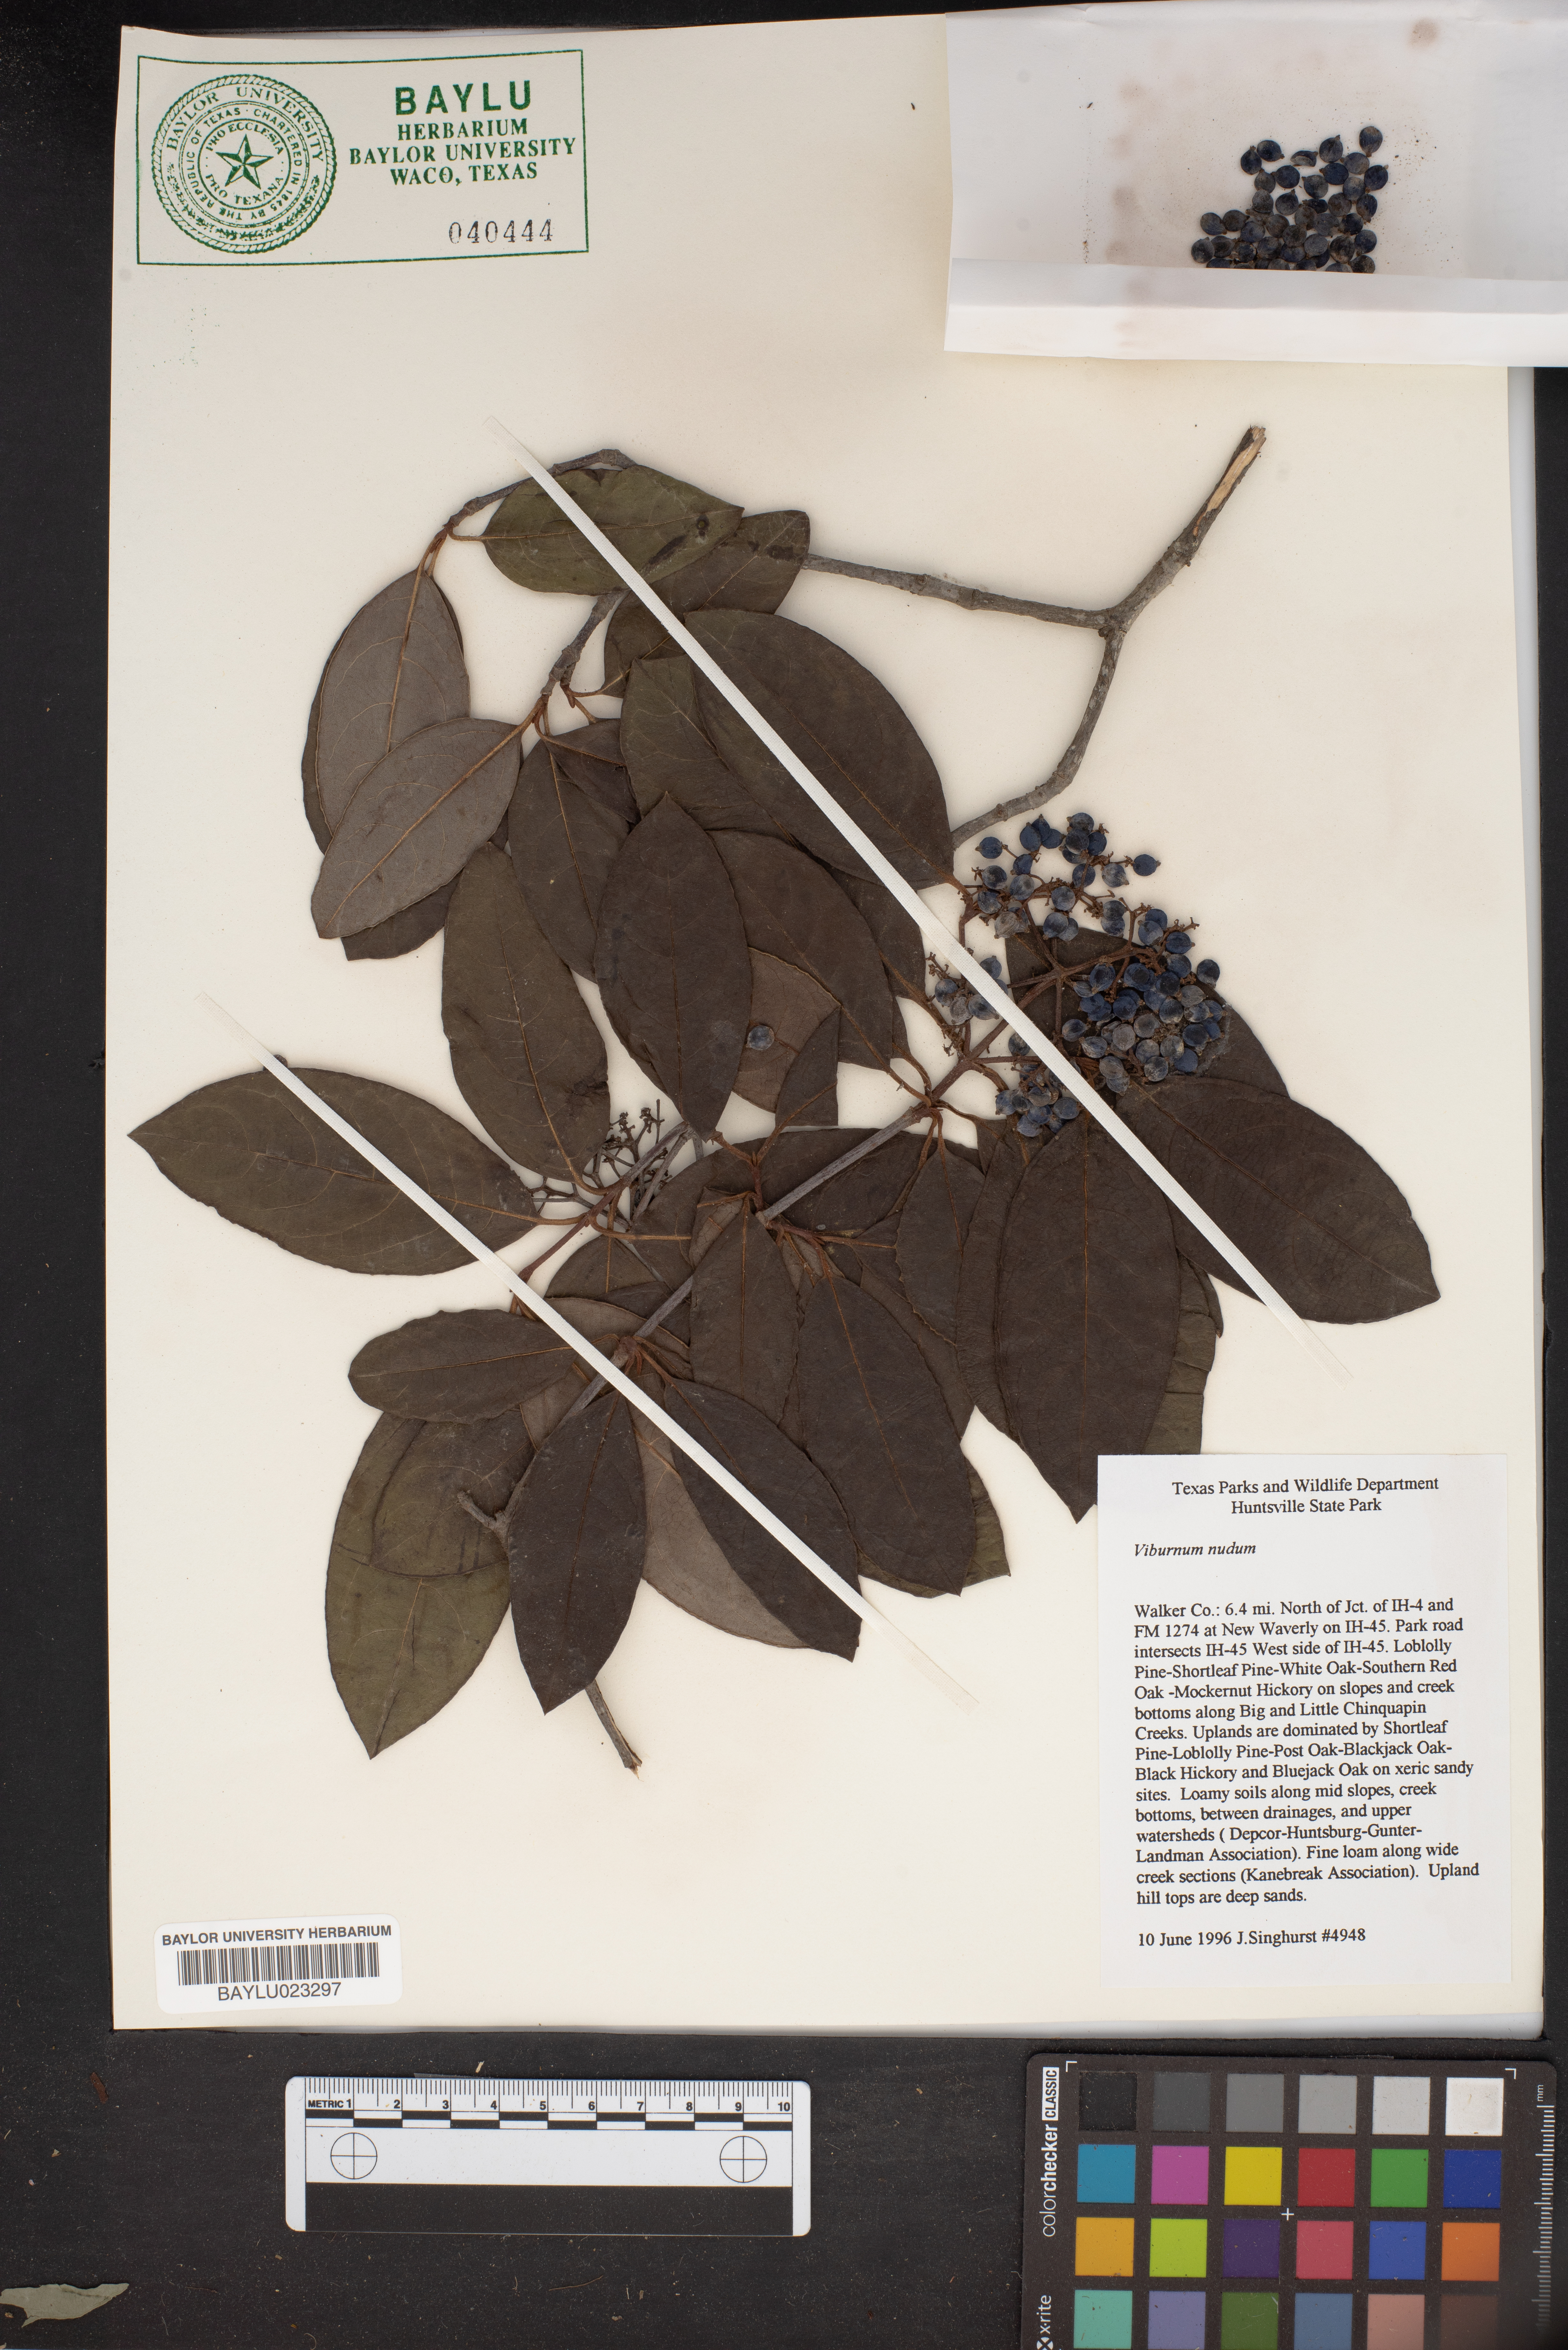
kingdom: Plantae
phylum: Tracheophyta
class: Magnoliopsida
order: Dipsacales
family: Viburnaceae
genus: Viburnum
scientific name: Viburnum nudum
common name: Possum haw
